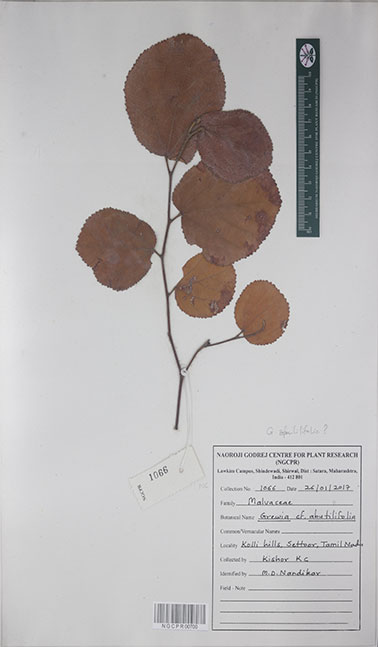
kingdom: Plantae
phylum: Tracheophyta
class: Magnoliopsida
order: Malvales
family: Malvaceae
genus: Grewia
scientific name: Grewia abutilifolia
